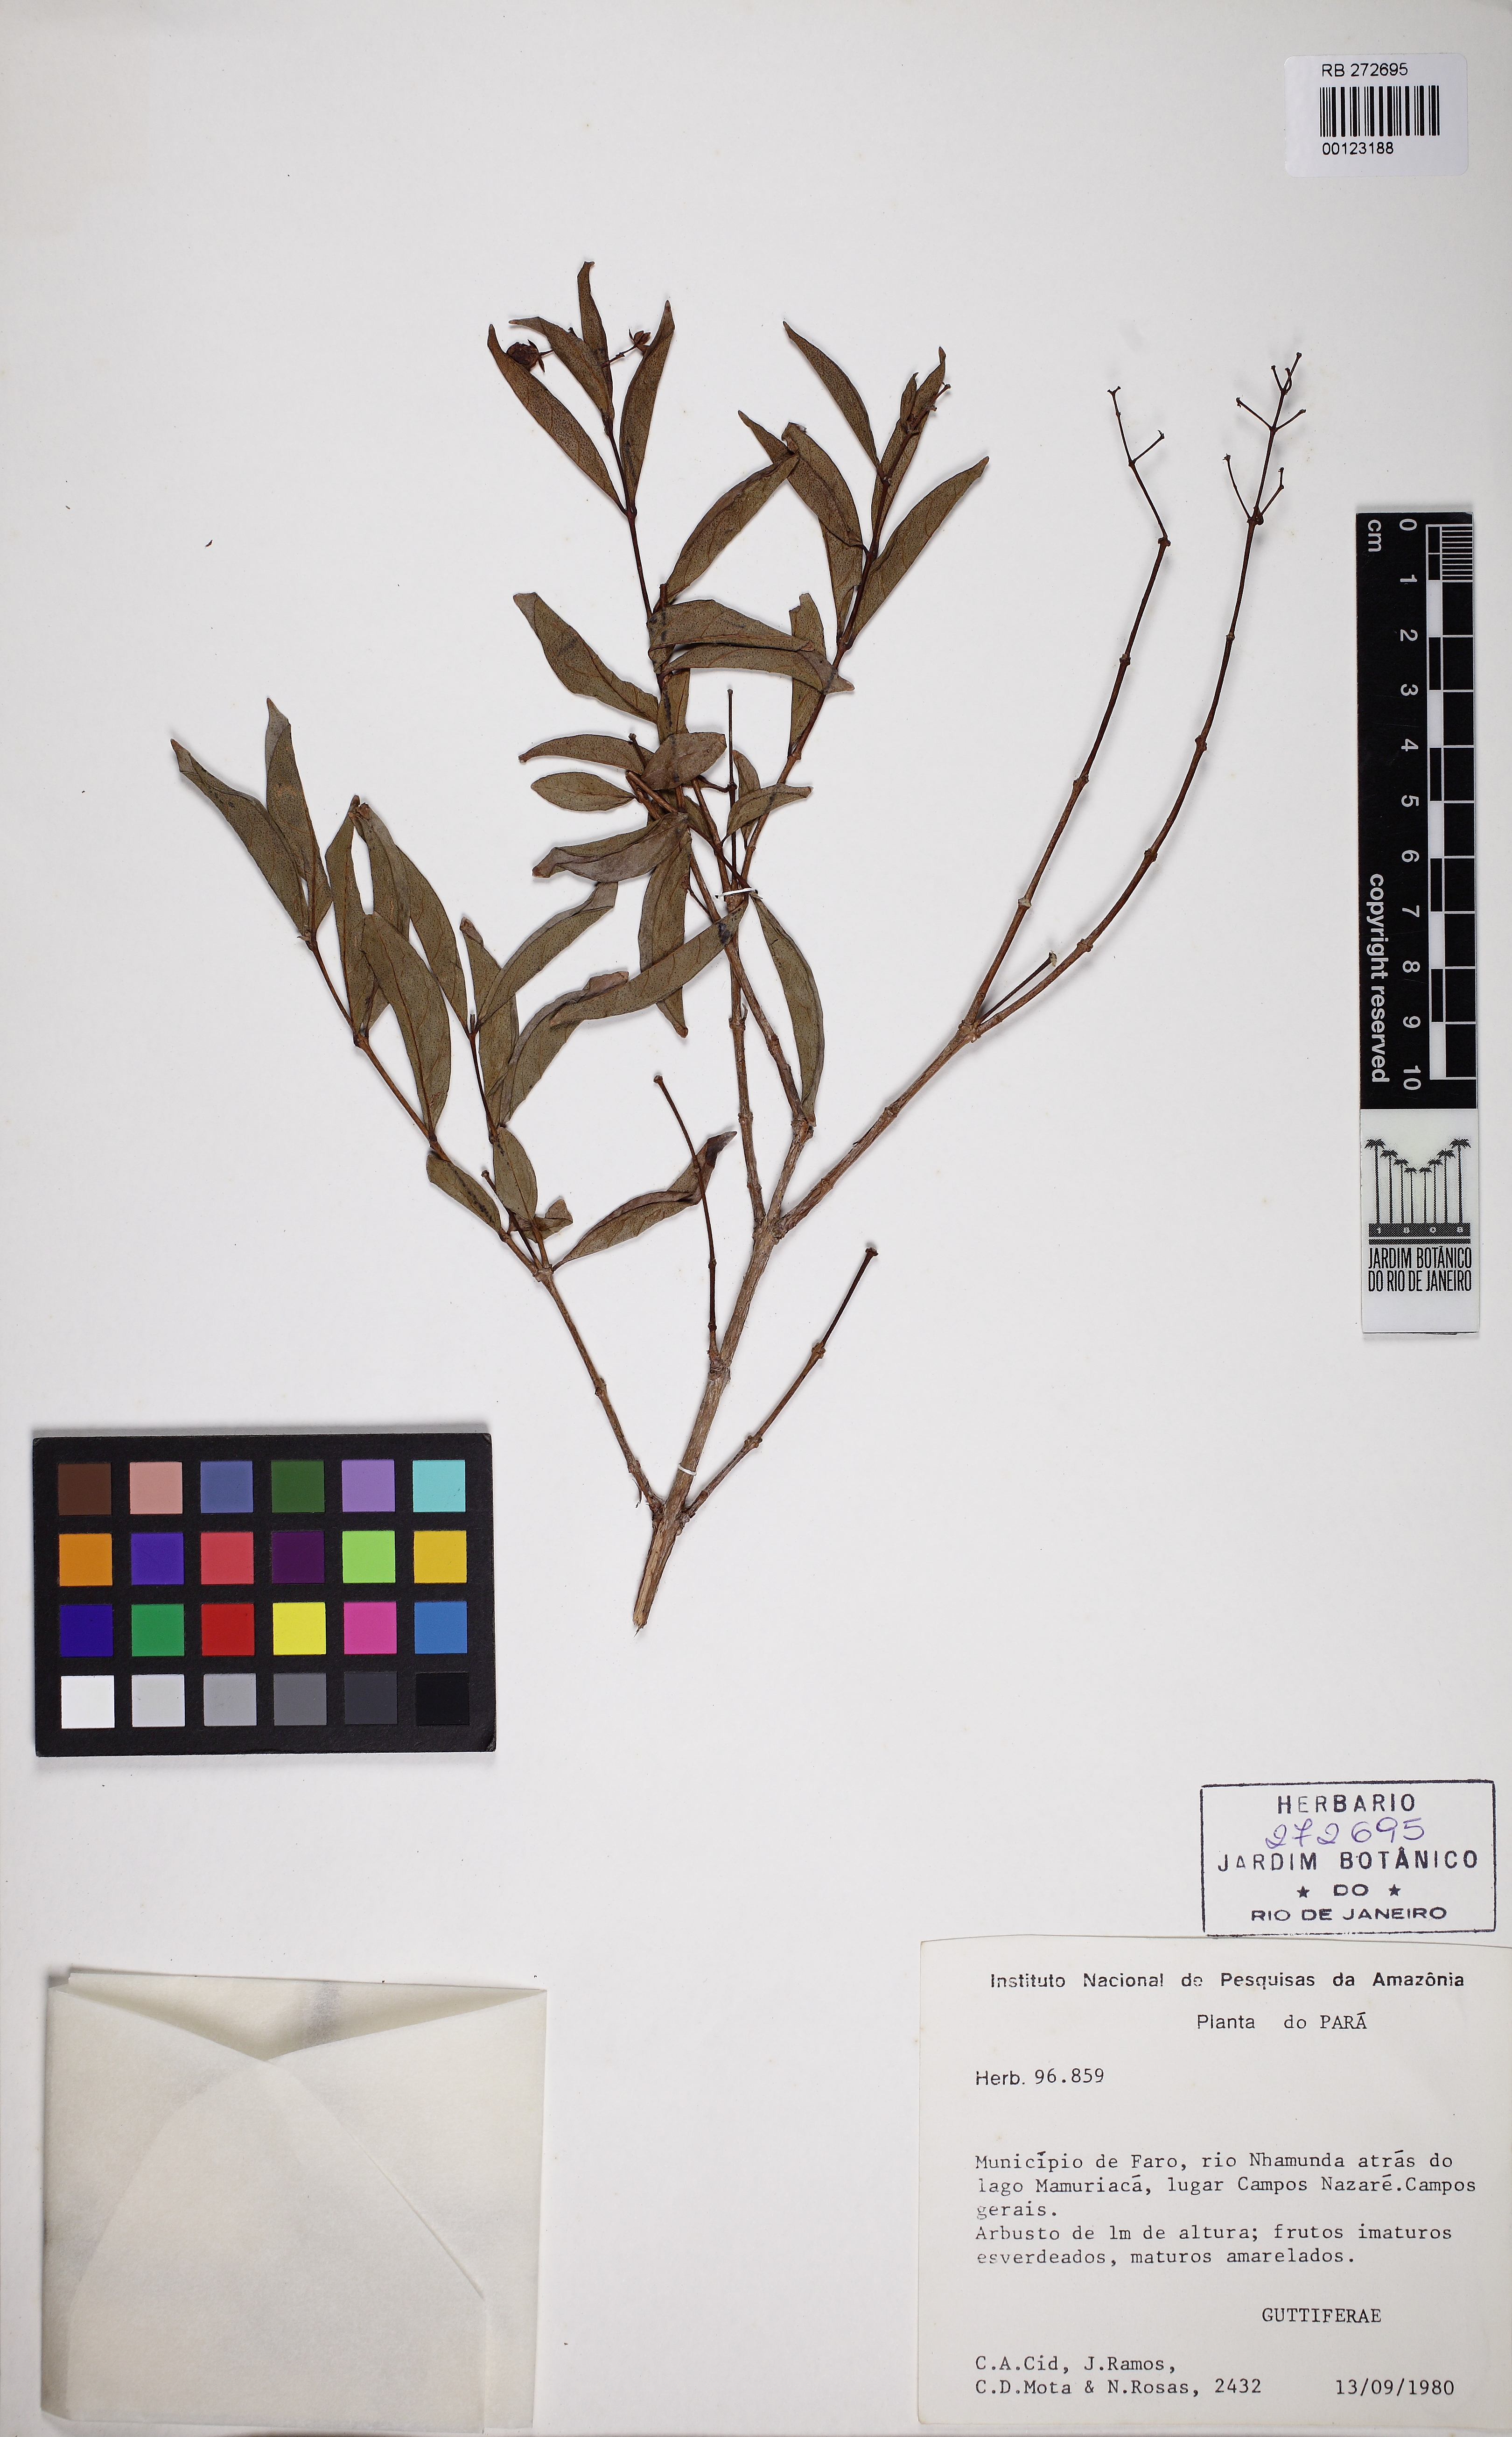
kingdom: Plantae
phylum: Tracheophyta
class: Magnoliopsida
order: Malpighiales
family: Hypericaceae
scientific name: Hypericaceae
